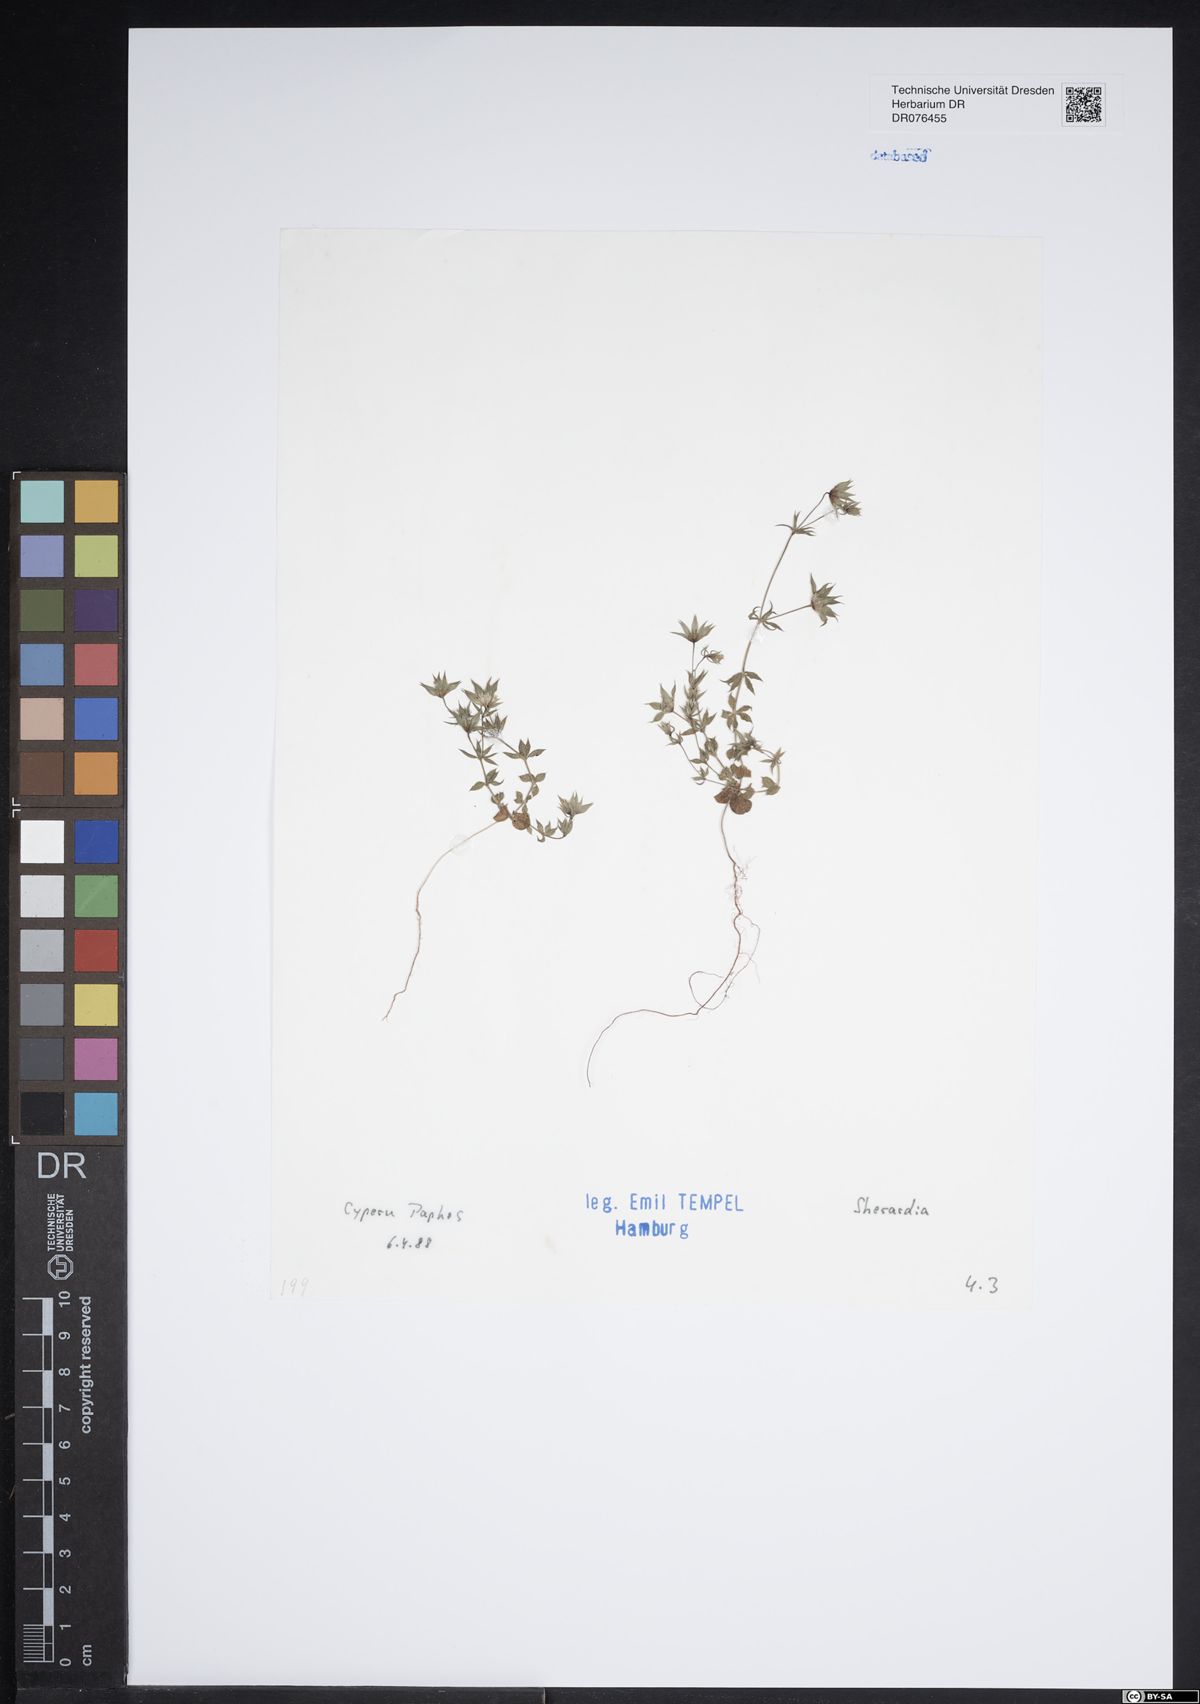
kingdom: Plantae
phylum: Tracheophyta
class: Magnoliopsida
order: Gentianales
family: Rubiaceae
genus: Sherardia
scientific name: Sherardia
